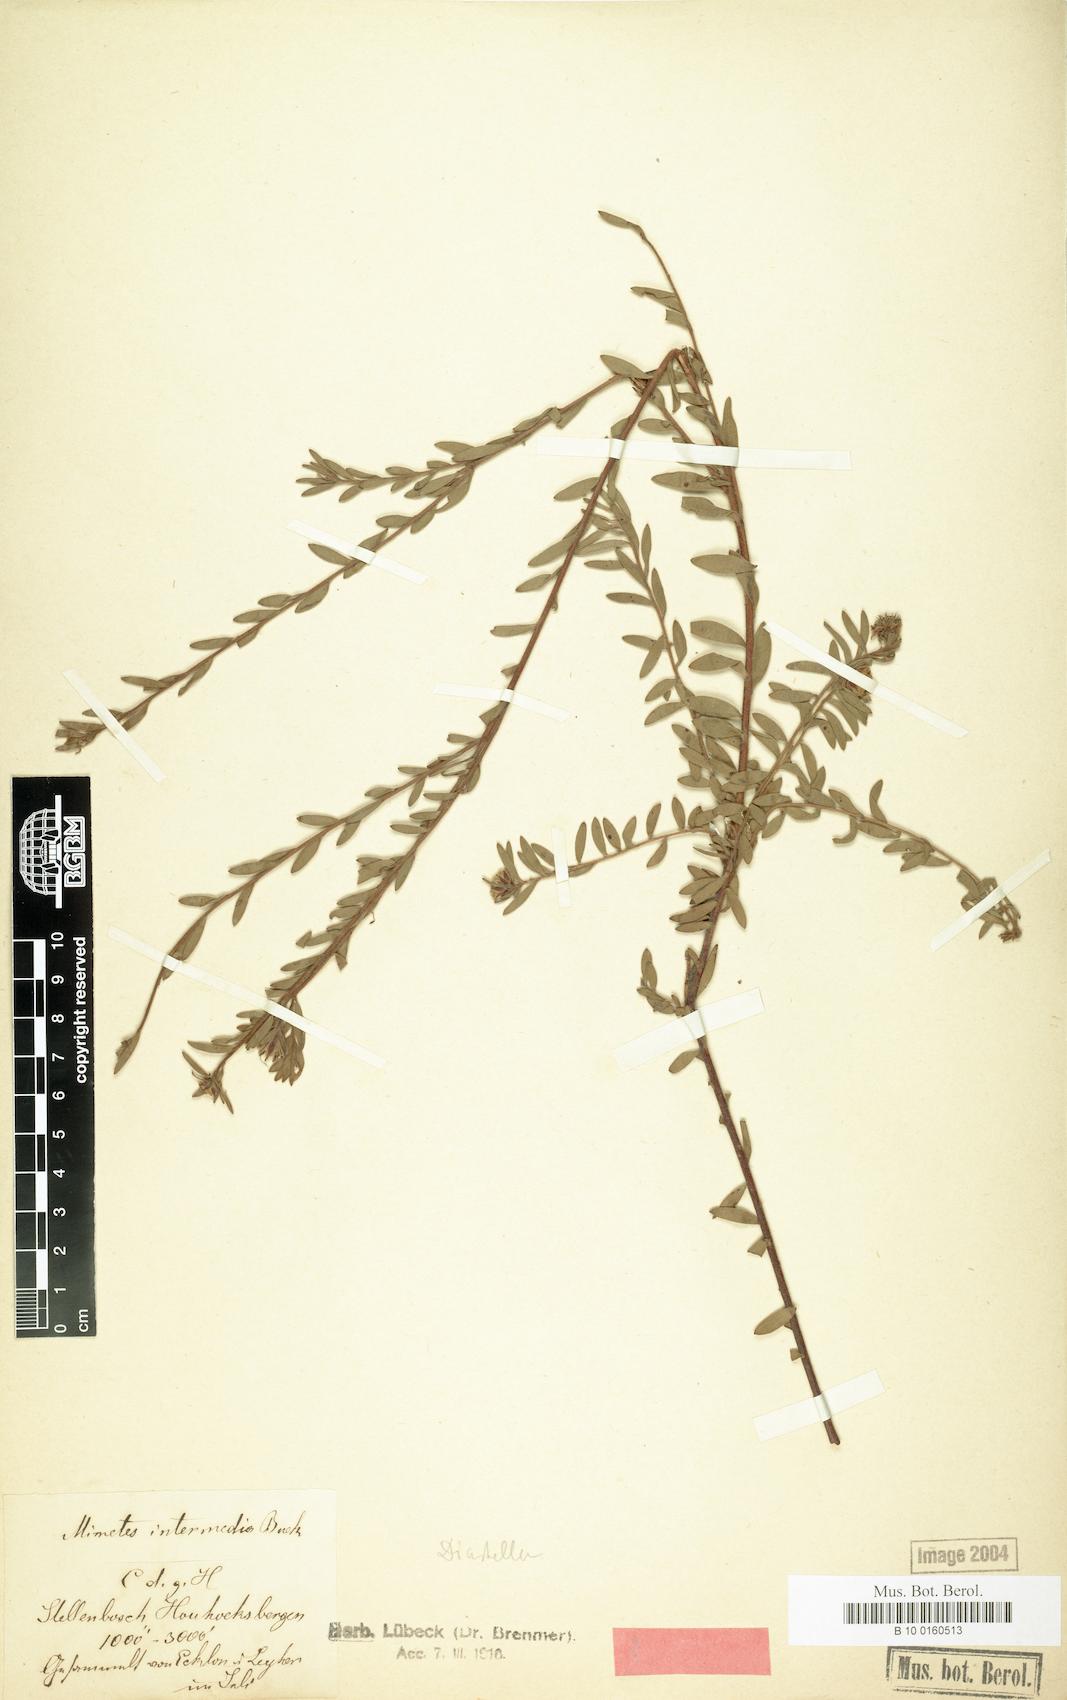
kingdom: Plantae
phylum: Tracheophyta
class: Magnoliopsida
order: Proteales
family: Proteaceae
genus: Diastella
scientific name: Diastella divaricata
